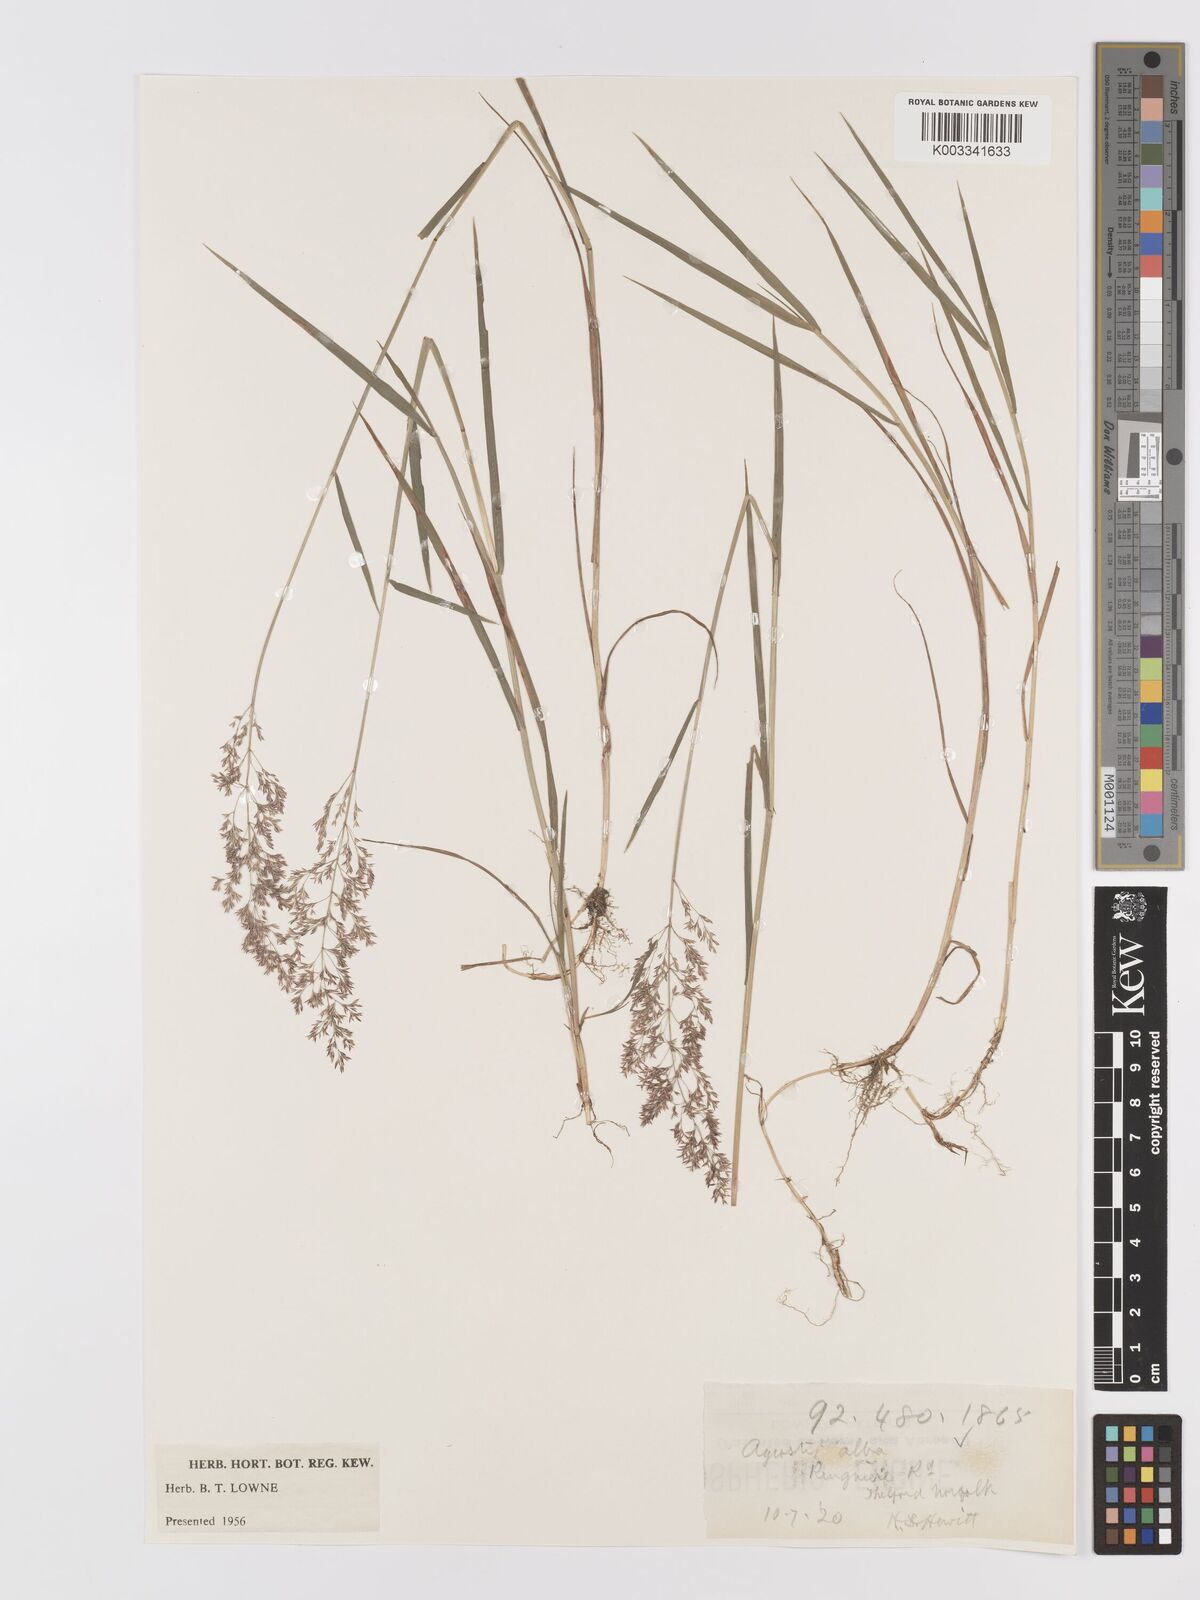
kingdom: Plantae
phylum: Tracheophyta
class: Liliopsida
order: Poales
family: Poaceae
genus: Agrostis
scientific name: Agrostis stolonifera
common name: Creeping bentgrass
